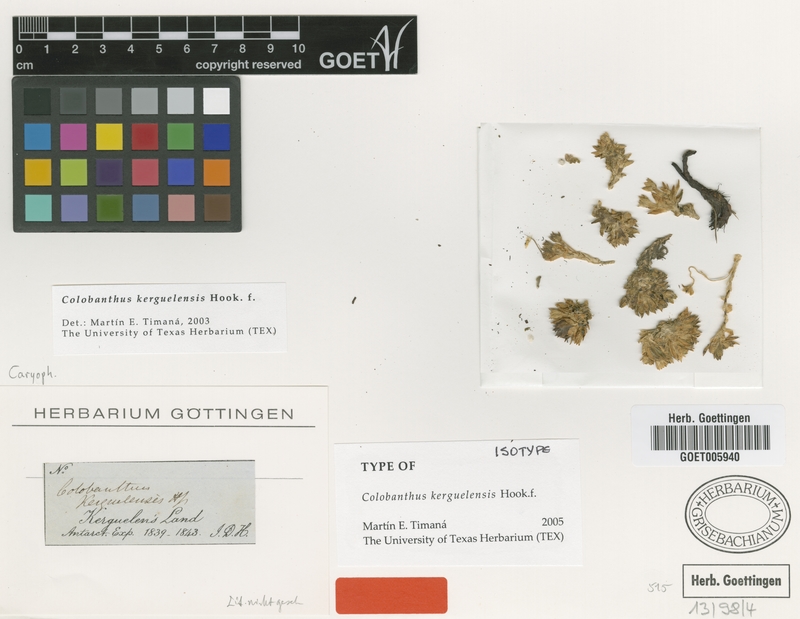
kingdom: Plantae
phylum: Tracheophyta
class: Magnoliopsida
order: Caryophyllales
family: Caryophyllaceae
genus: Colobanthus
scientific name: Colobanthus kerguelensis
